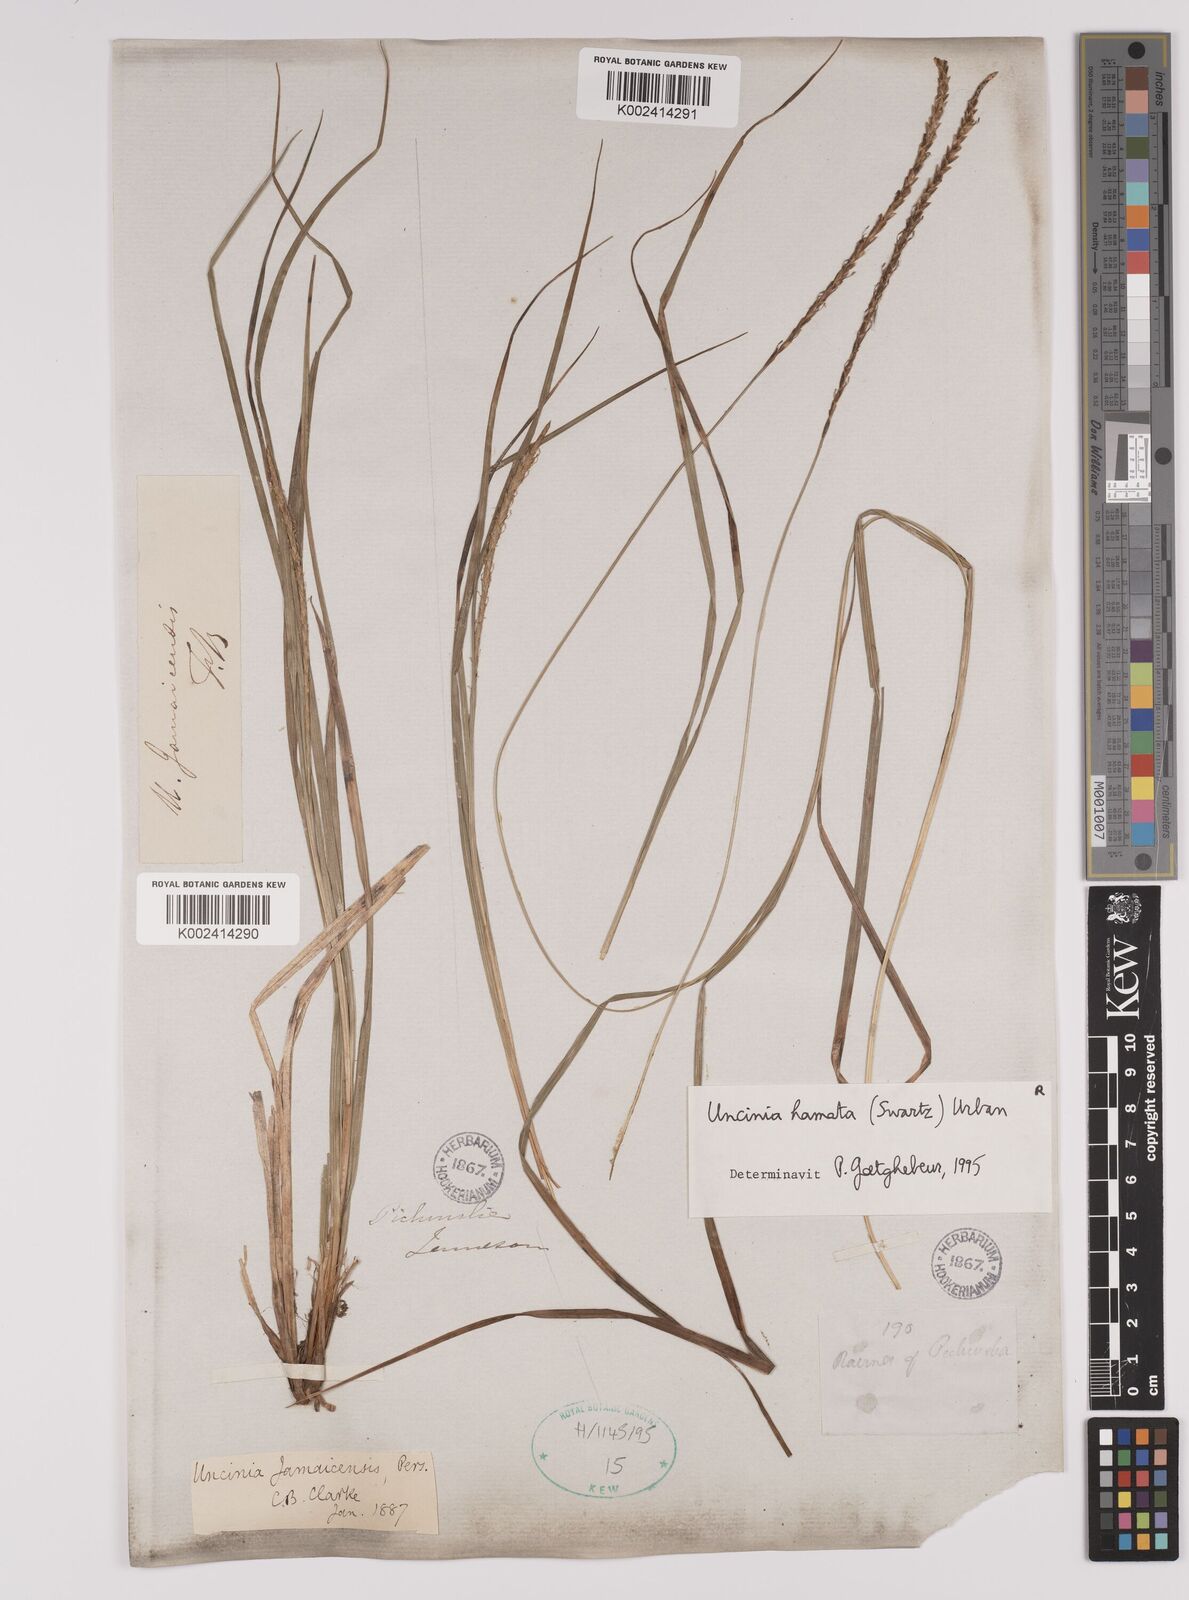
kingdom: Plantae
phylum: Tracheophyta
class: Liliopsida
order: Poales
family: Cyperaceae
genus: Carex
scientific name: Carex hamata
